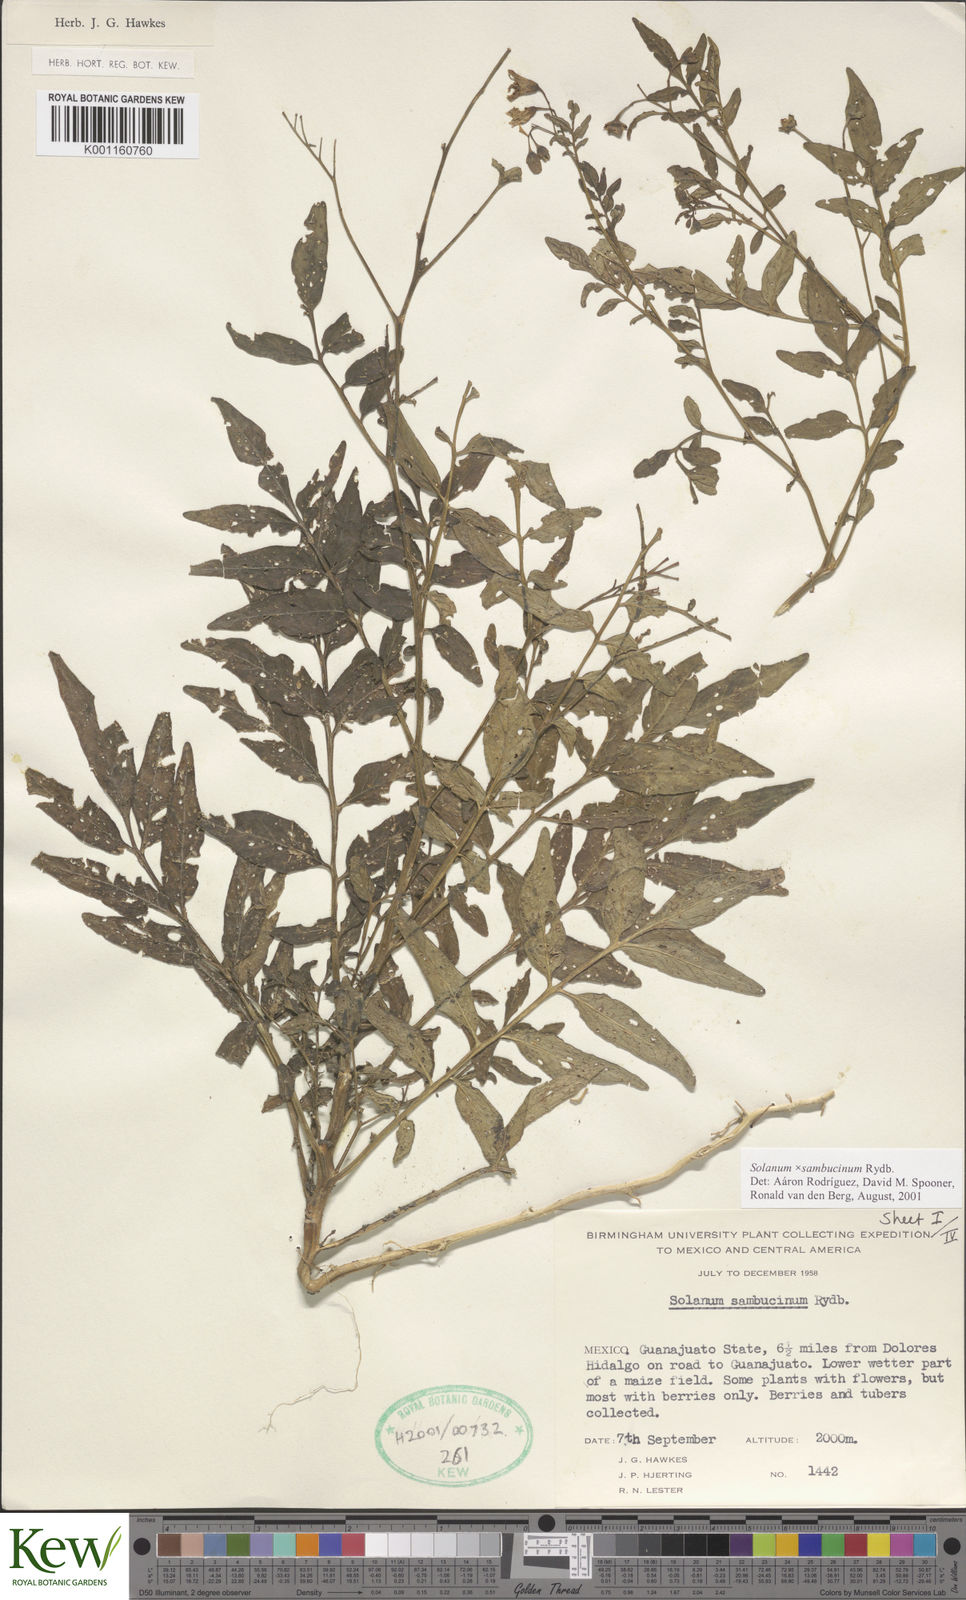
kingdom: Plantae
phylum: Tracheophyta
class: Magnoliopsida
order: Solanales
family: Solanaceae
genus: Solanum
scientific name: Solanum
